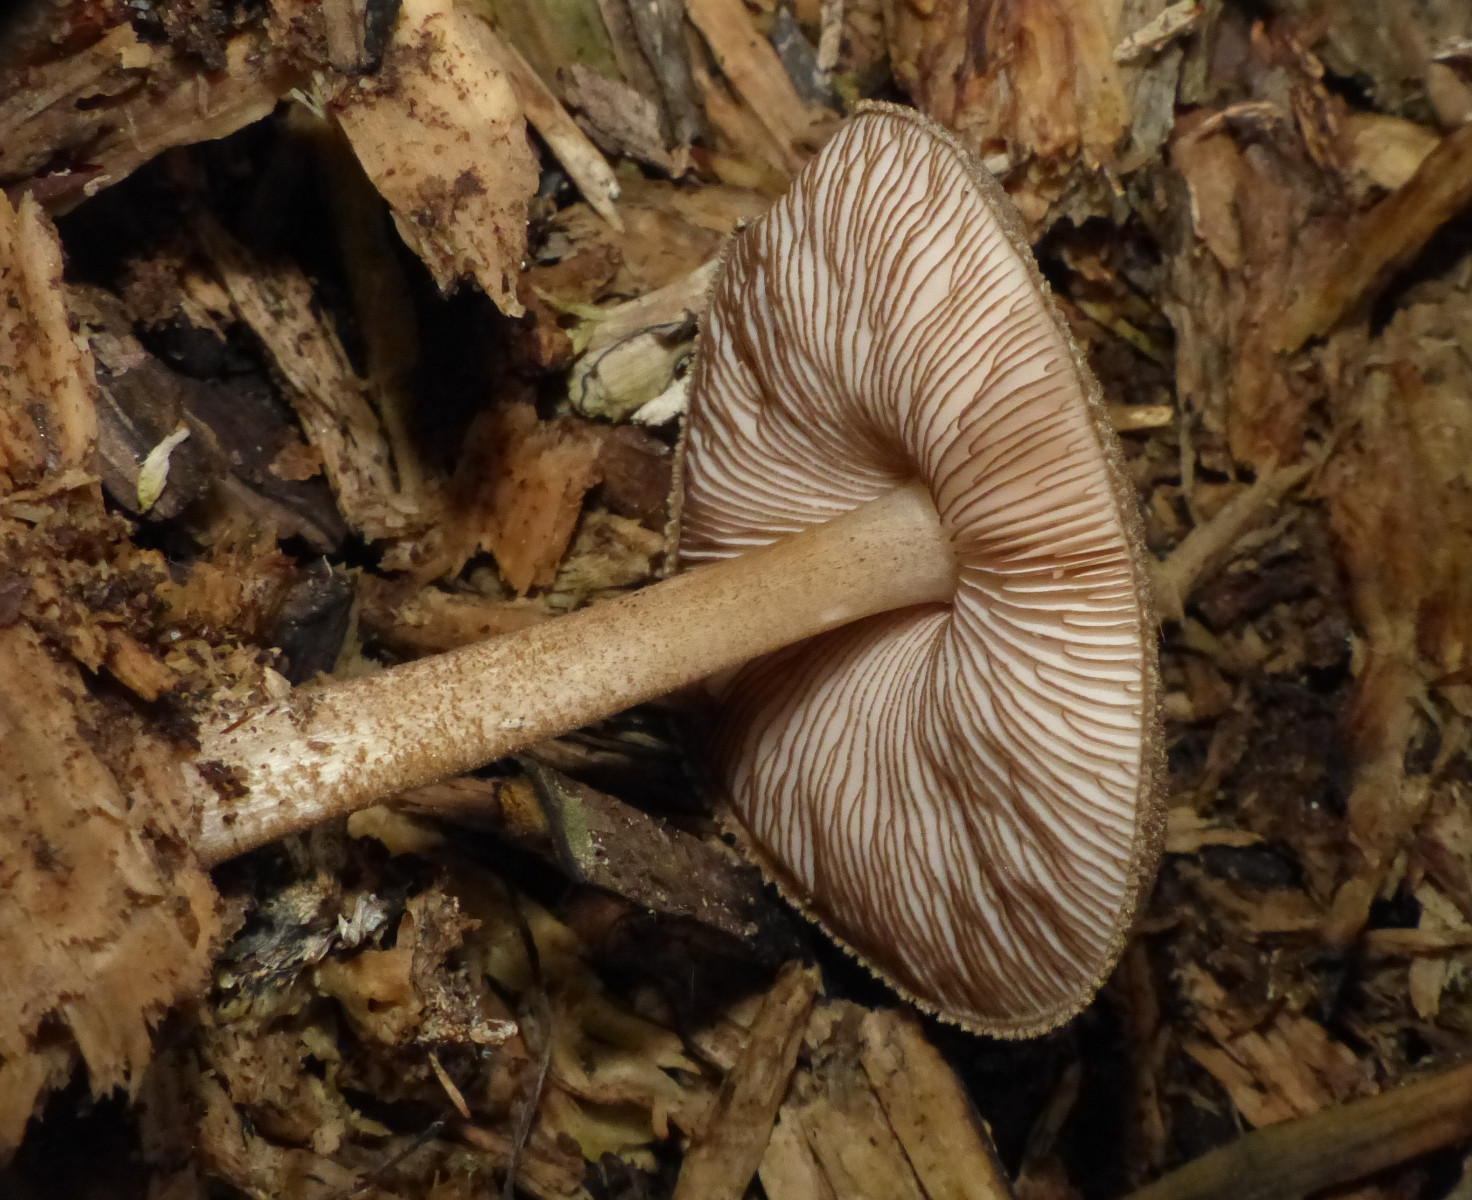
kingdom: Fungi
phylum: Basidiomycota
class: Agaricomycetes
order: Agaricales
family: Pluteaceae
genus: Pluteus
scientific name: Pluteus umbrosus
